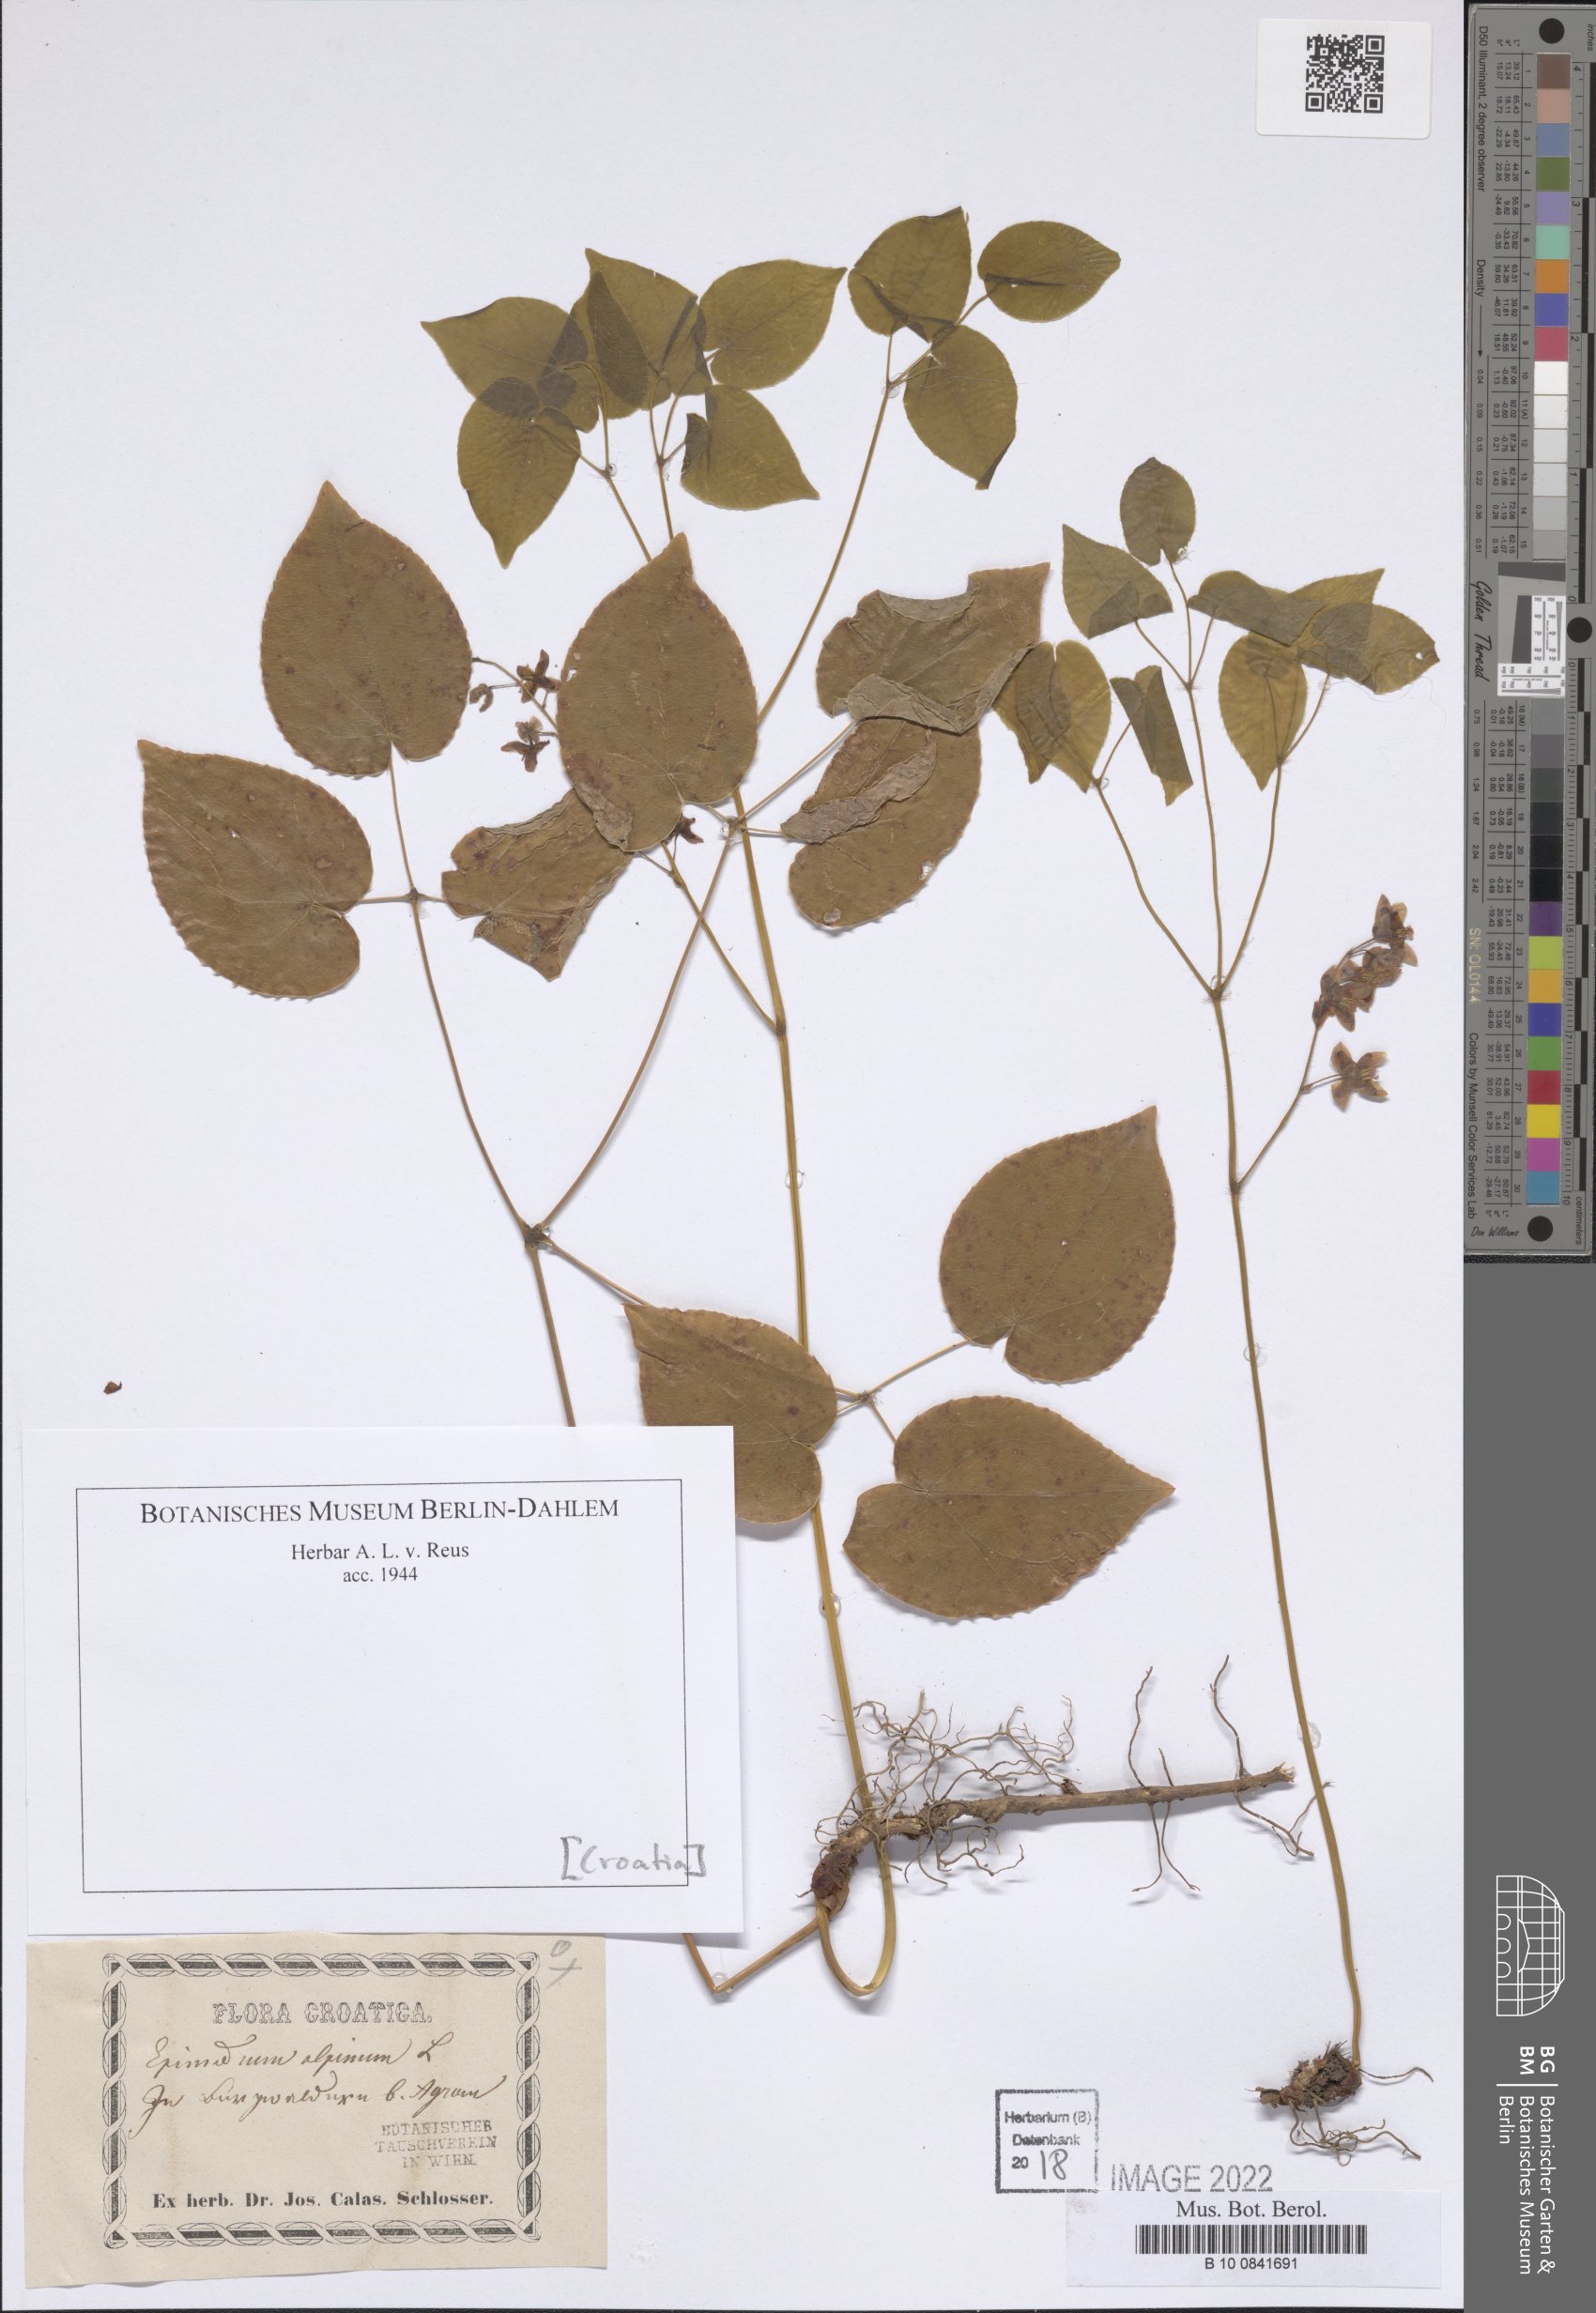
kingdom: Plantae
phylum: Tracheophyta
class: Magnoliopsida
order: Ranunculales
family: Berberidaceae
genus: Epimedium
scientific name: Epimedium alpinum
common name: Barrenwort
